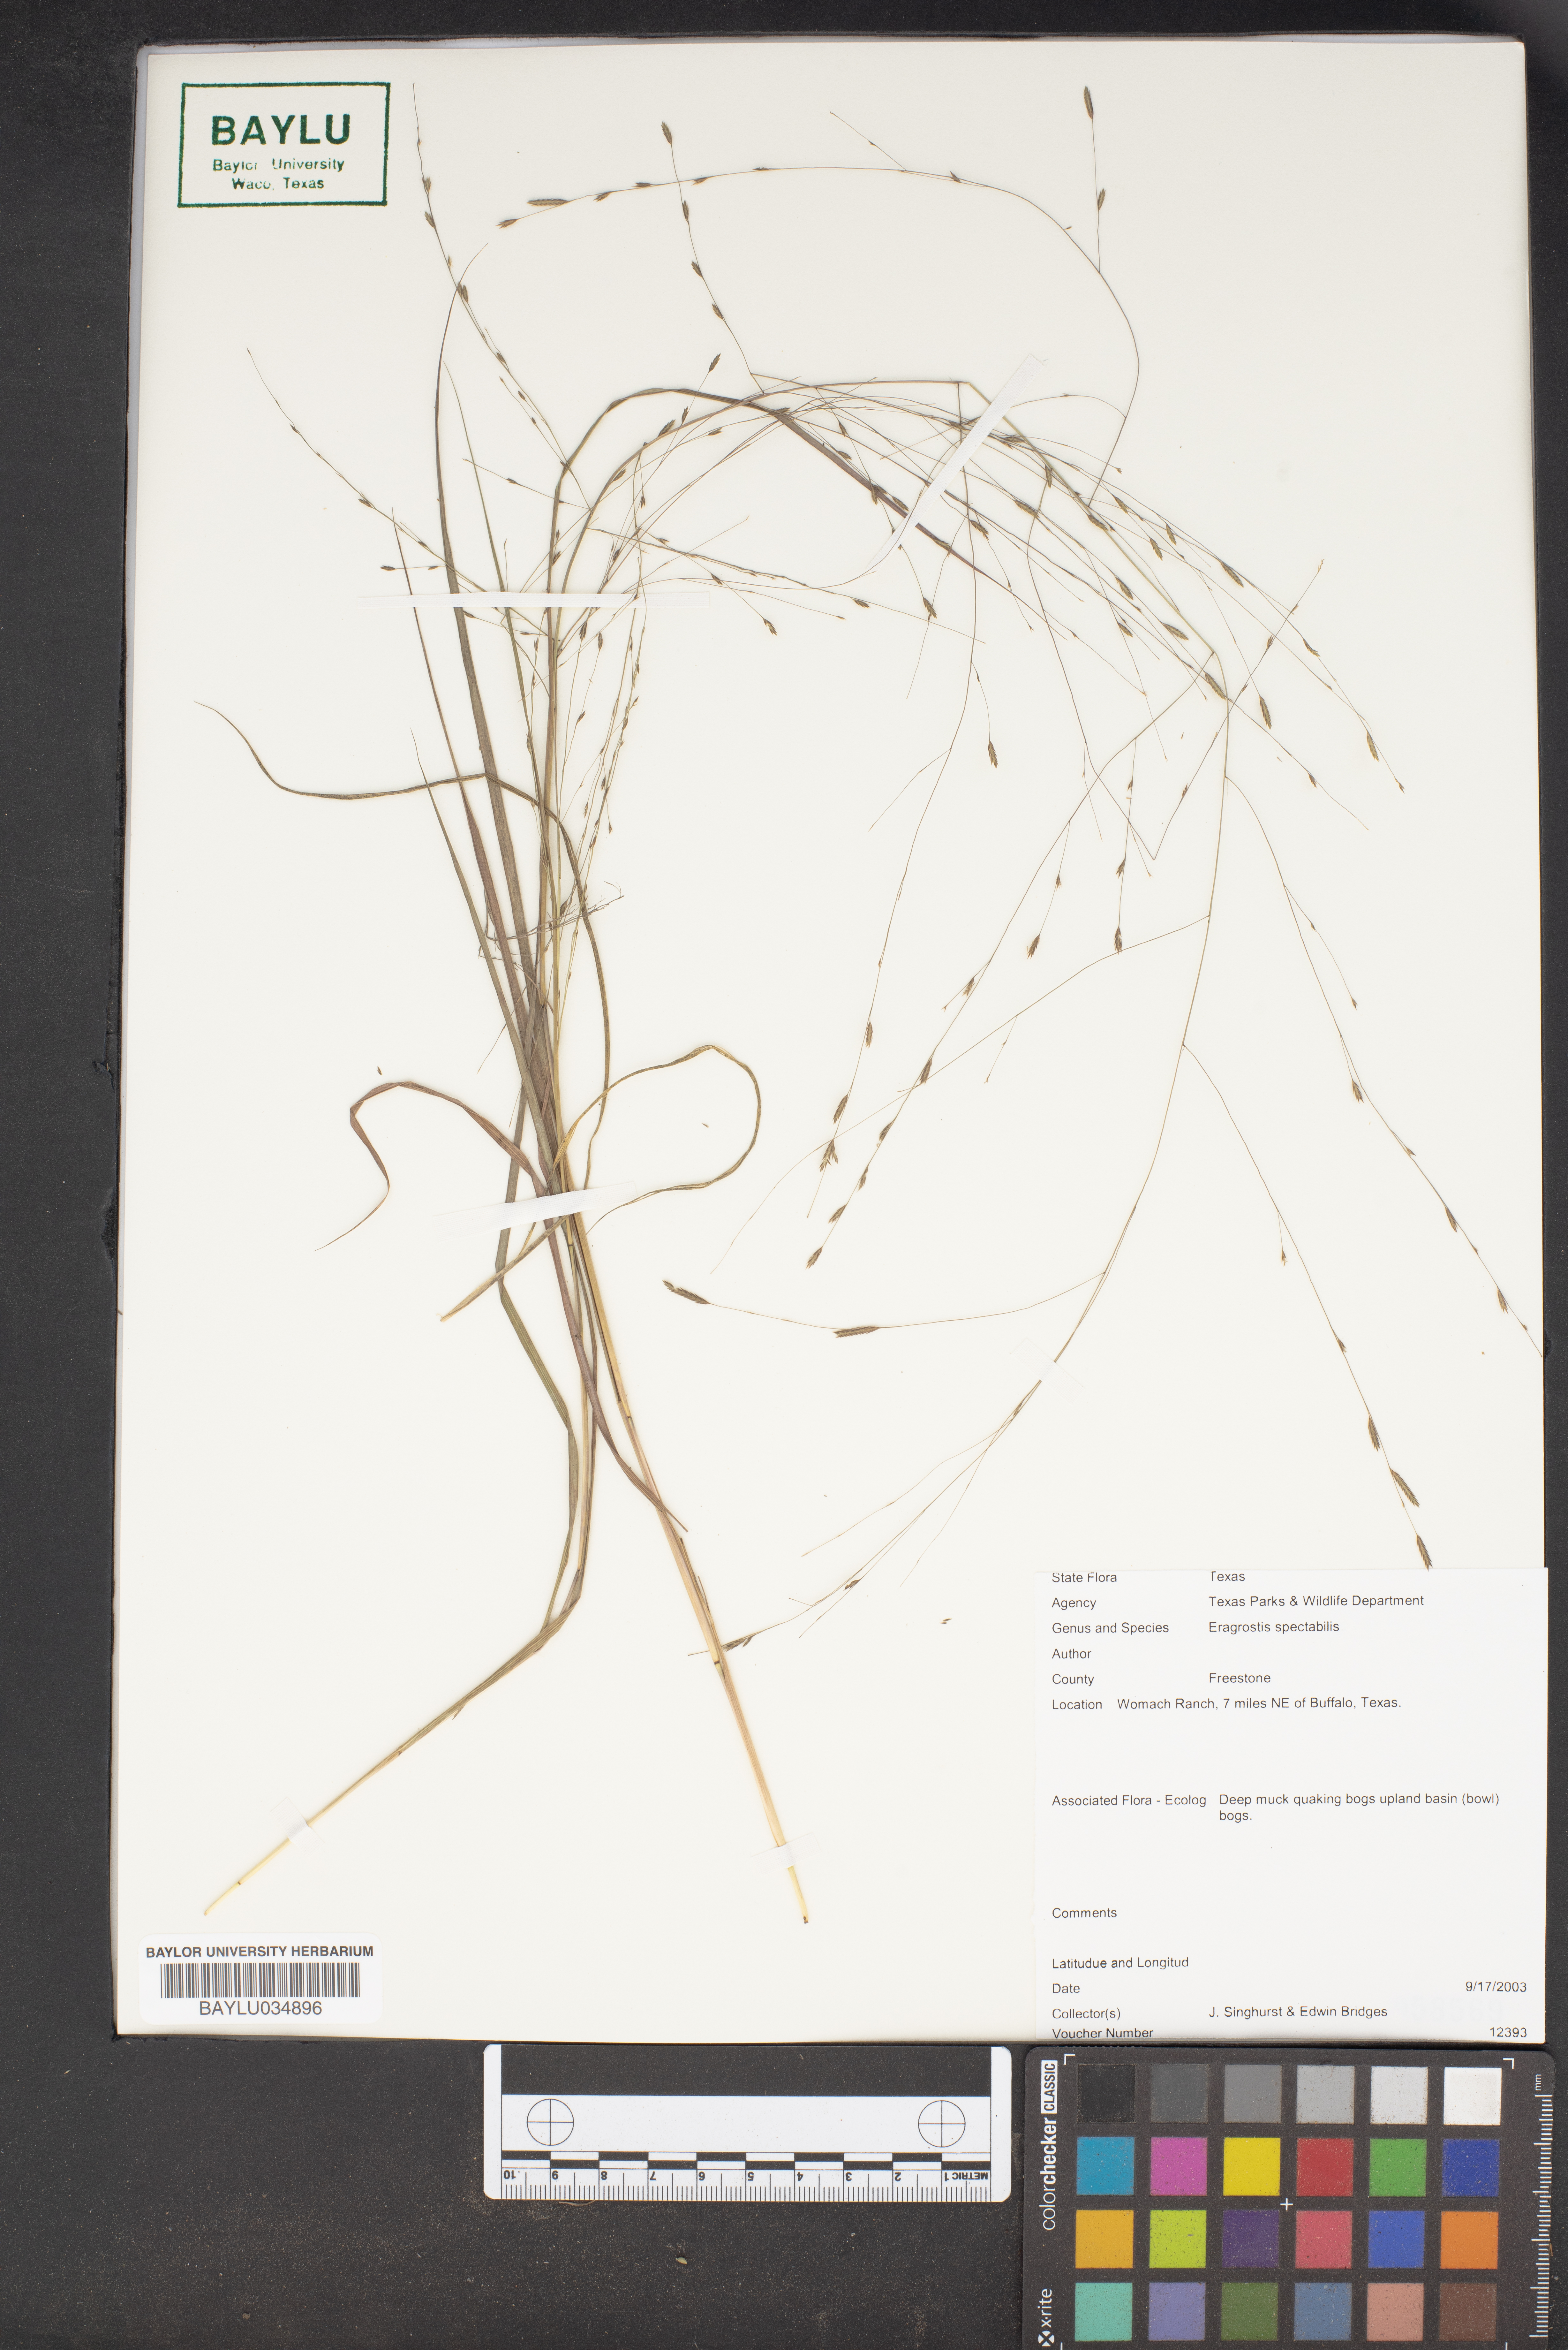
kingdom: Plantae
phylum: Tracheophyta
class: Liliopsida
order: Poales
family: Poaceae
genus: Eragrostis
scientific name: Eragrostis spectabilis
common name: Petticoat-climber
